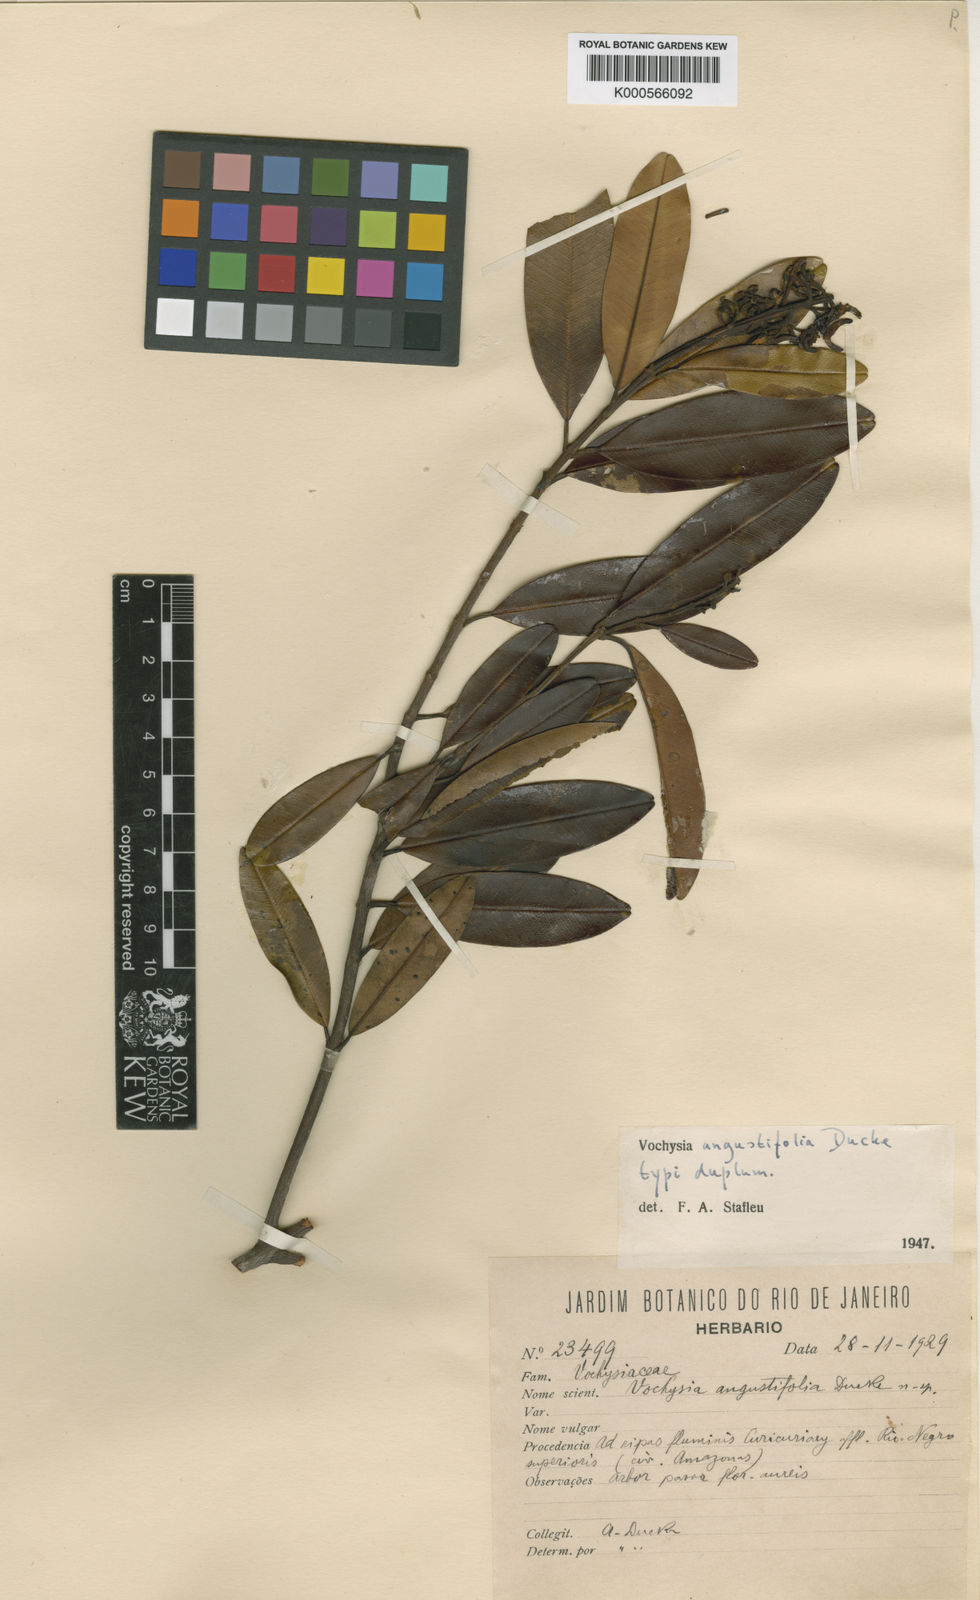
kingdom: Plantae
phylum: Tracheophyta
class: Magnoliopsida
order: Myrtales
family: Vochysiaceae
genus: Vochysia
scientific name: Vochysia angustifolia
